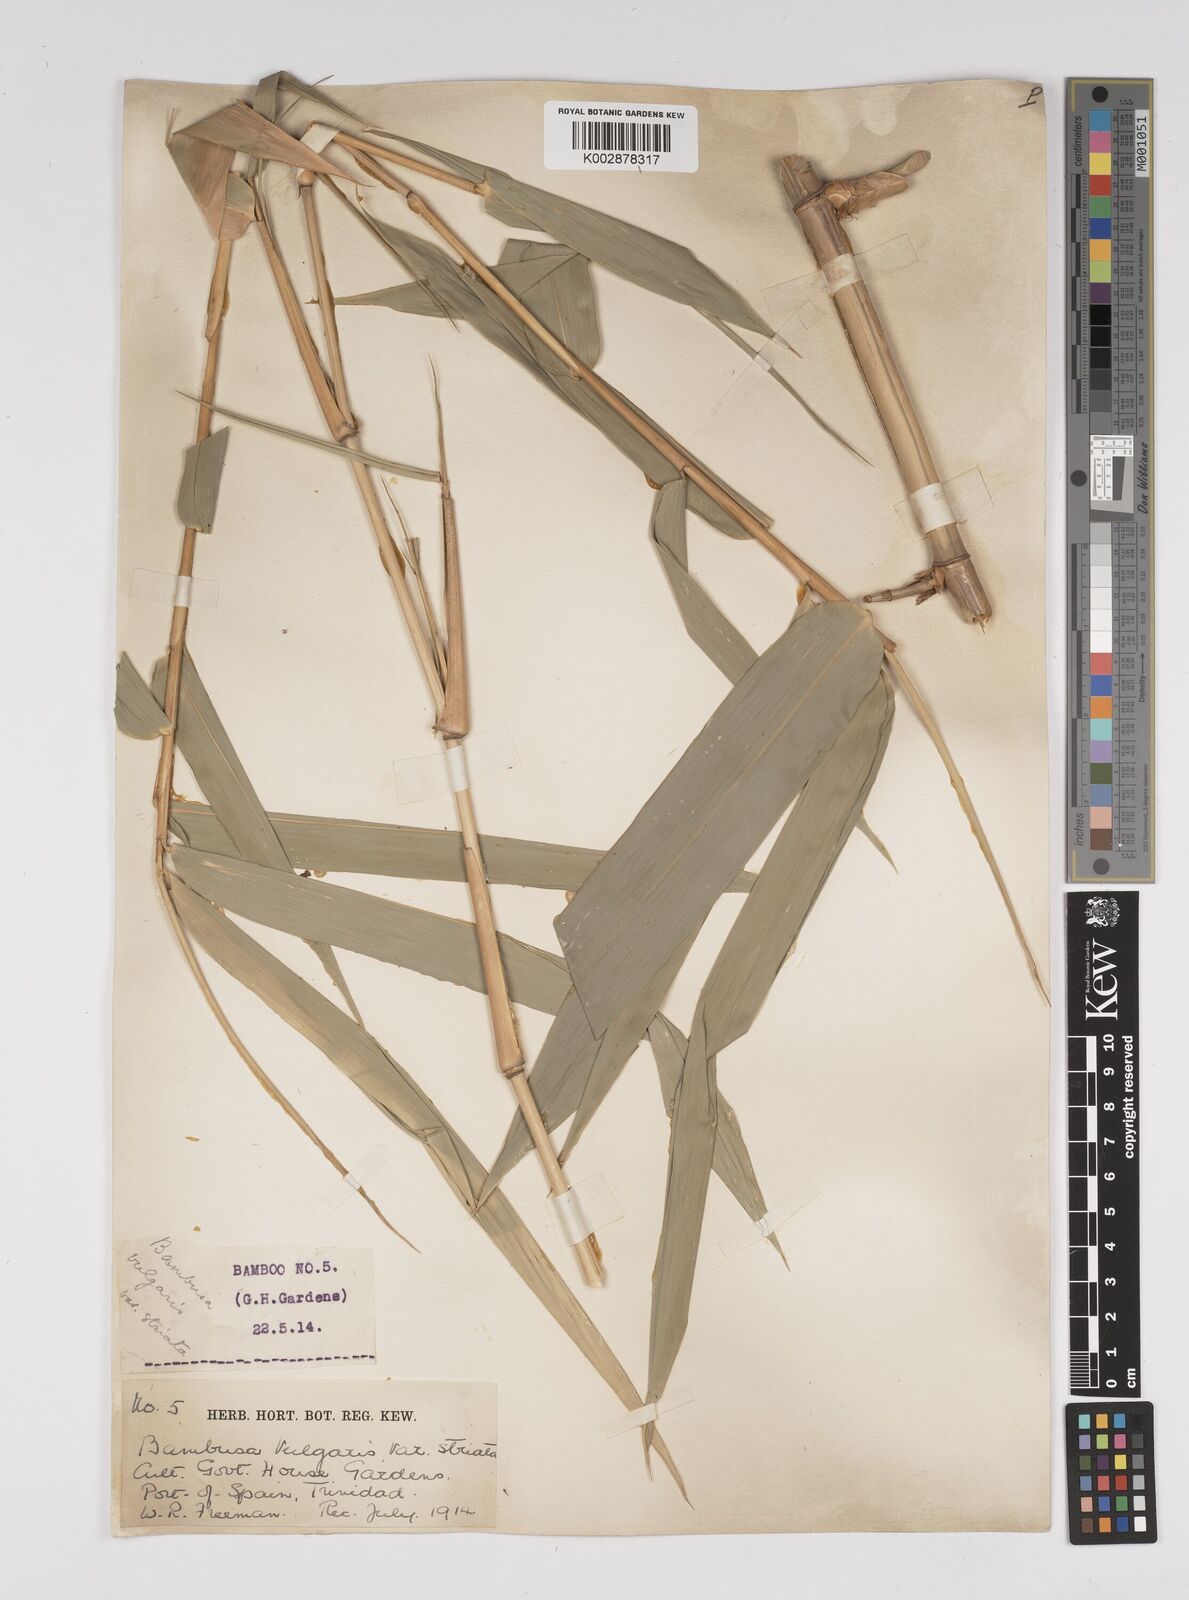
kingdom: Plantae
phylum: Tracheophyta
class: Liliopsida
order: Poales
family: Poaceae
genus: Bambusa
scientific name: Bambusa
